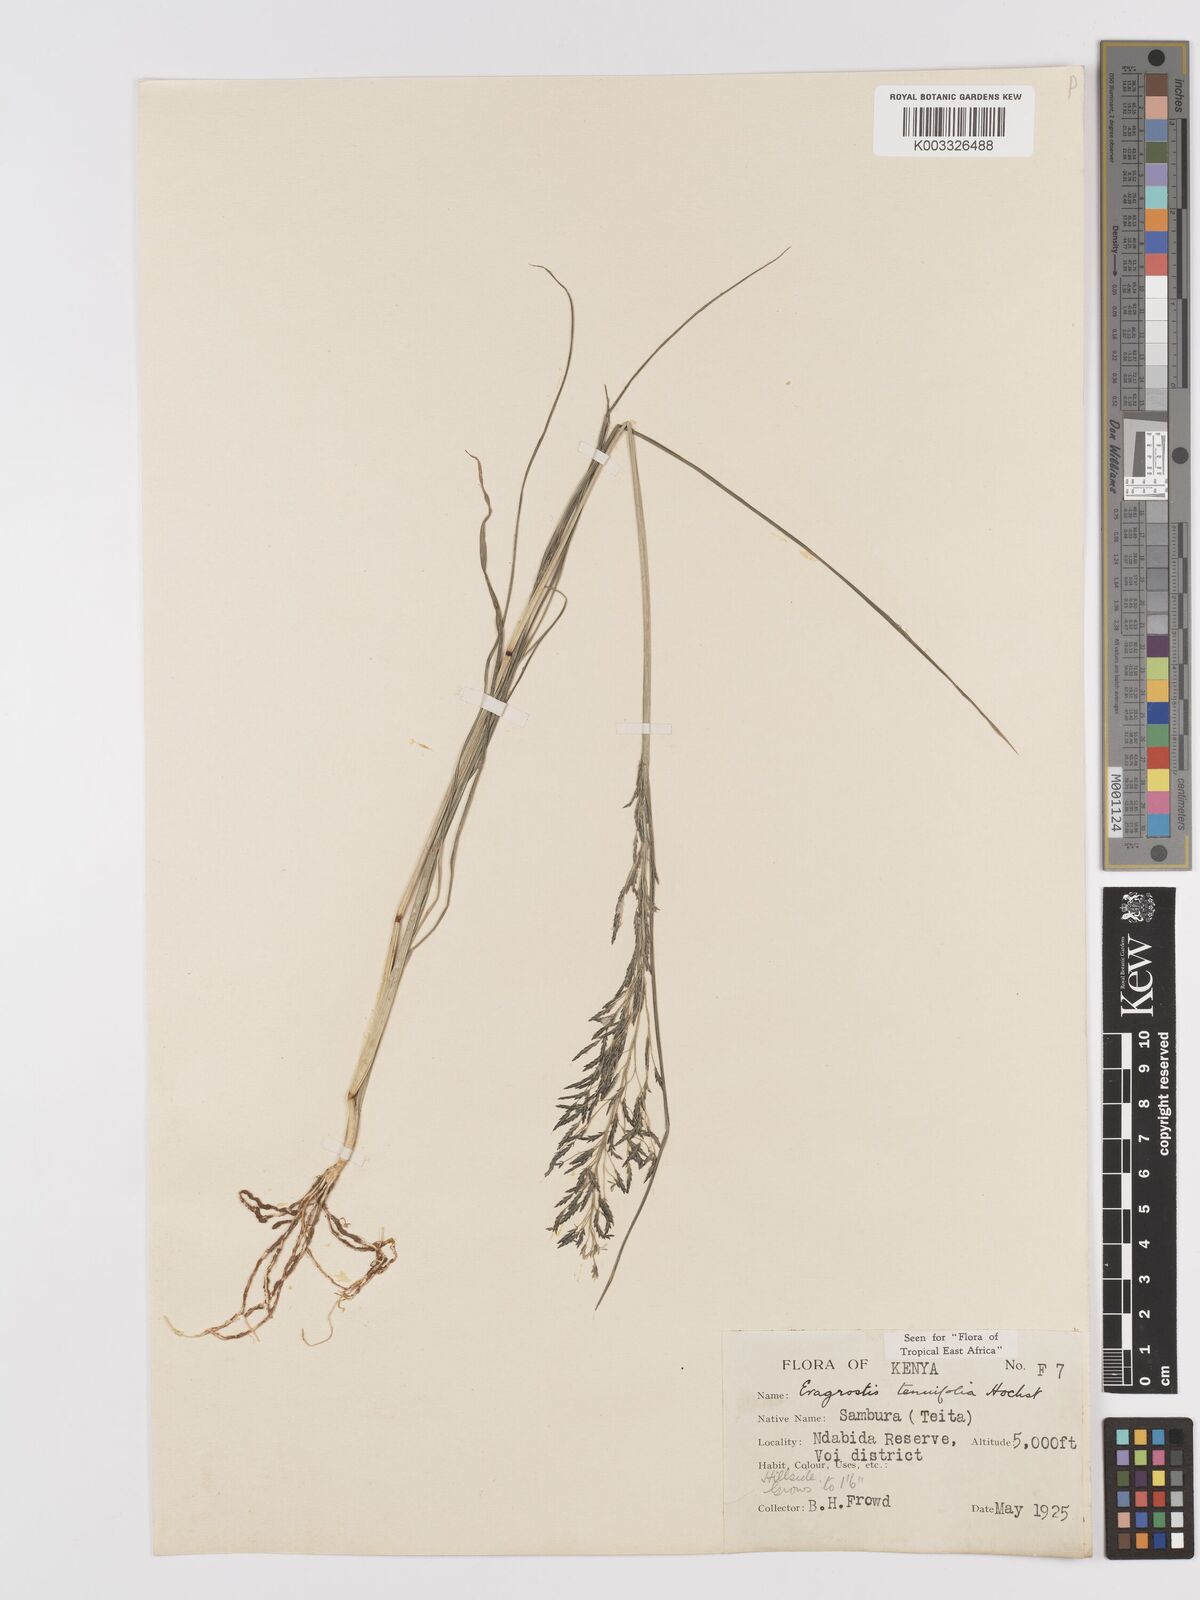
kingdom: Plantae
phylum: Tracheophyta
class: Liliopsida
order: Poales
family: Poaceae
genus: Eragrostis
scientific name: Eragrostis tenuifolia
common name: Elastic grass
